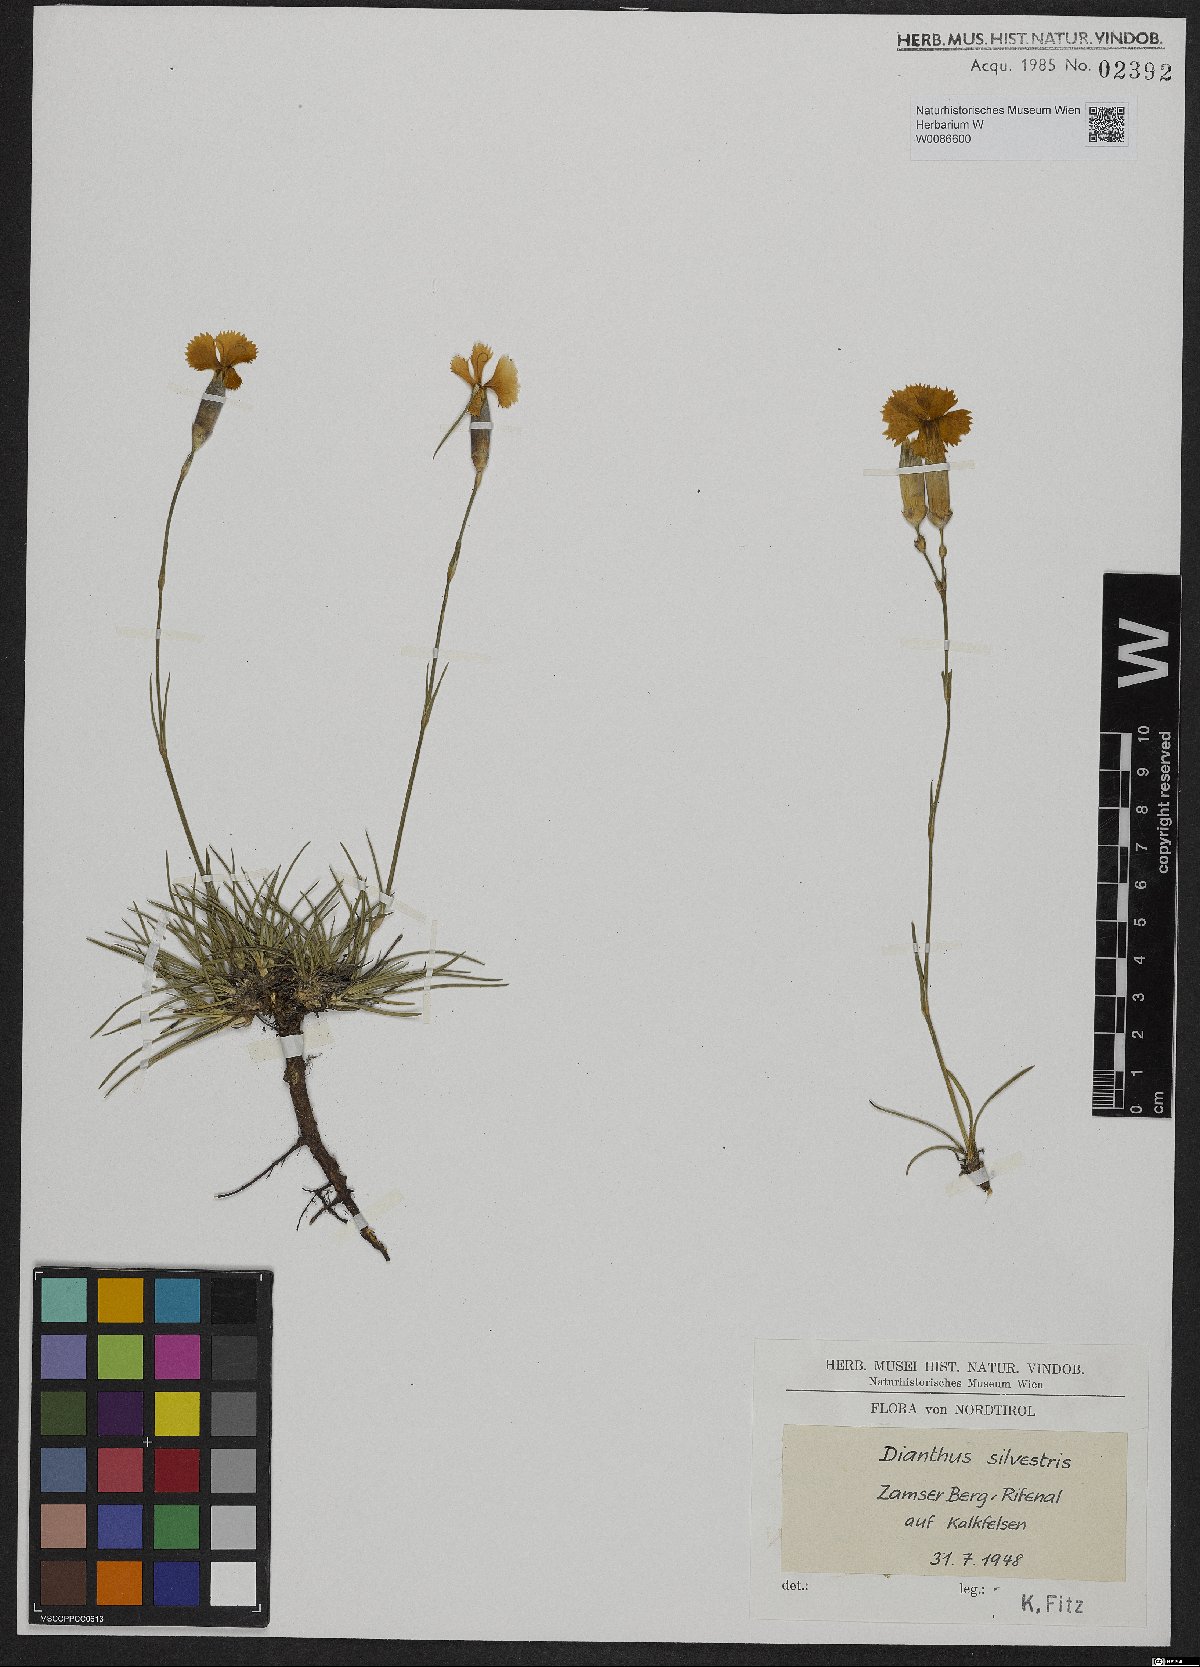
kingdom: Plantae
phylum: Tracheophyta
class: Magnoliopsida
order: Caryophyllales
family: Caryophyllaceae
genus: Dianthus
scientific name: Dianthus sylvestris
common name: Wood pink
